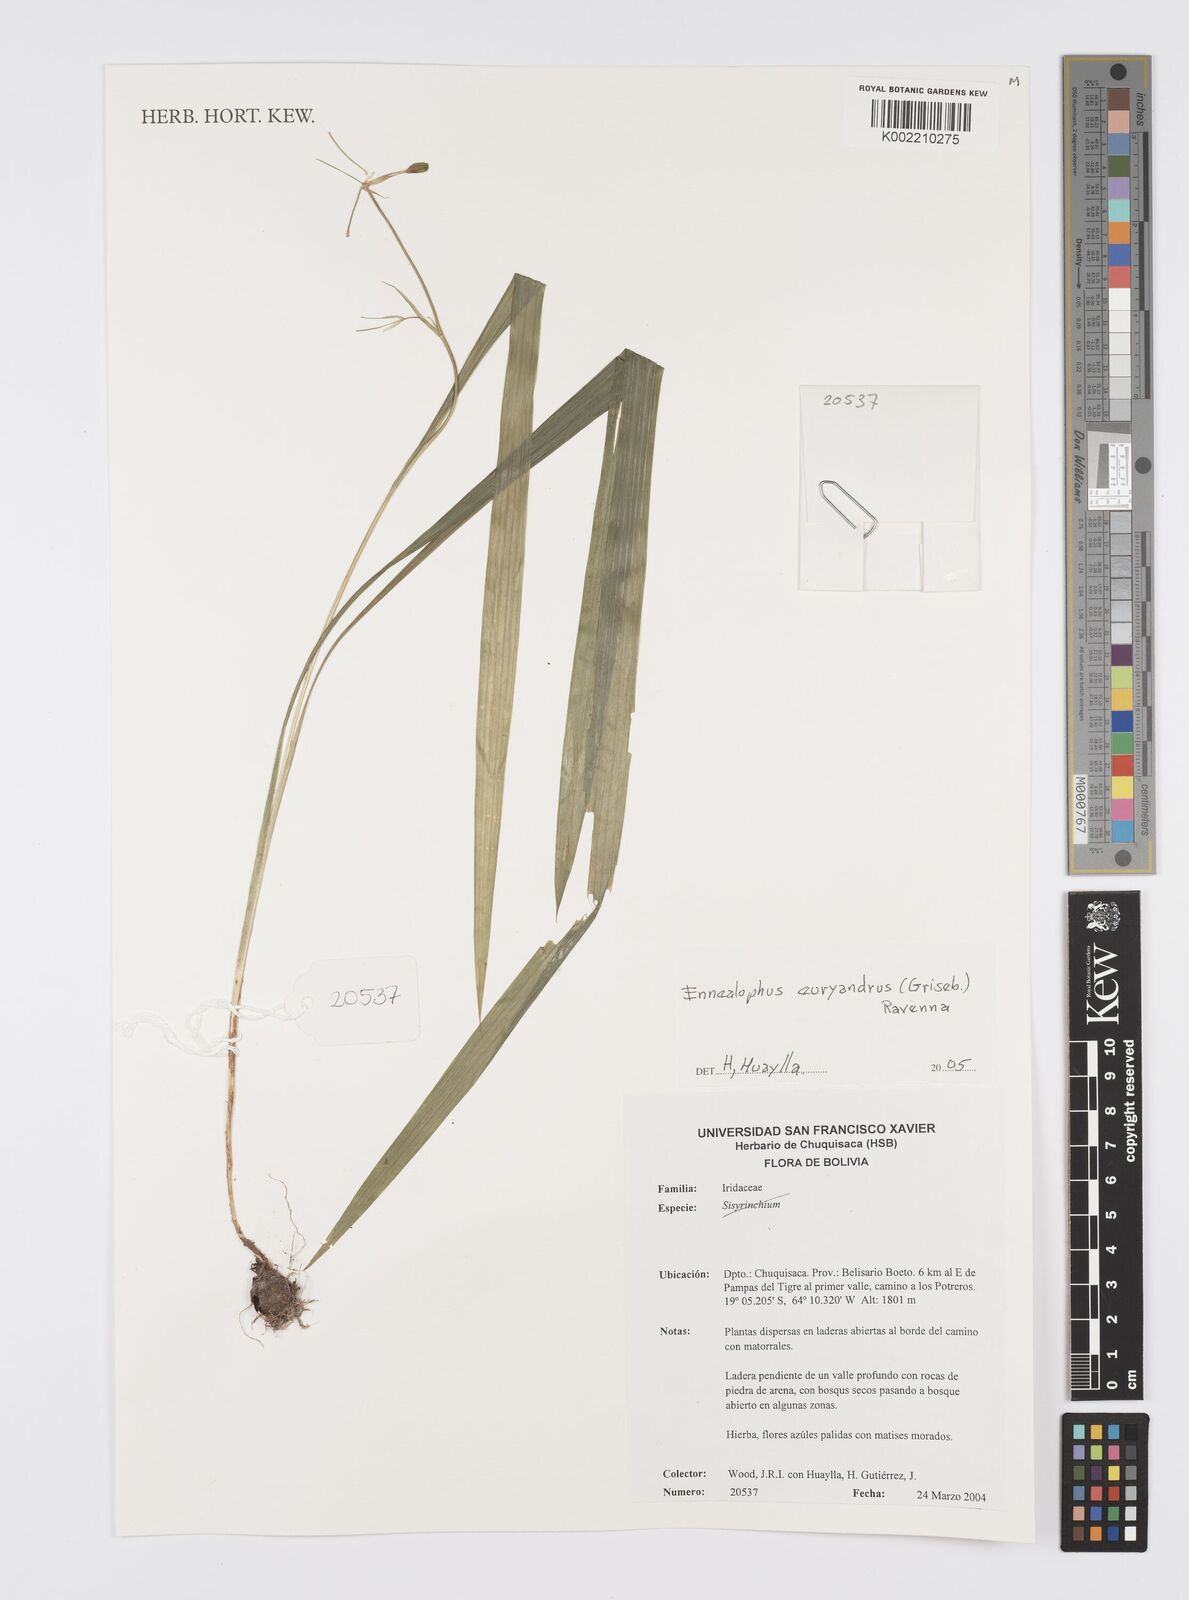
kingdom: Plantae
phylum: Tracheophyta
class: Liliopsida
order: Asparagales
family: Iridaceae
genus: Ennealophus
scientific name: Ennealophus euryandrus
